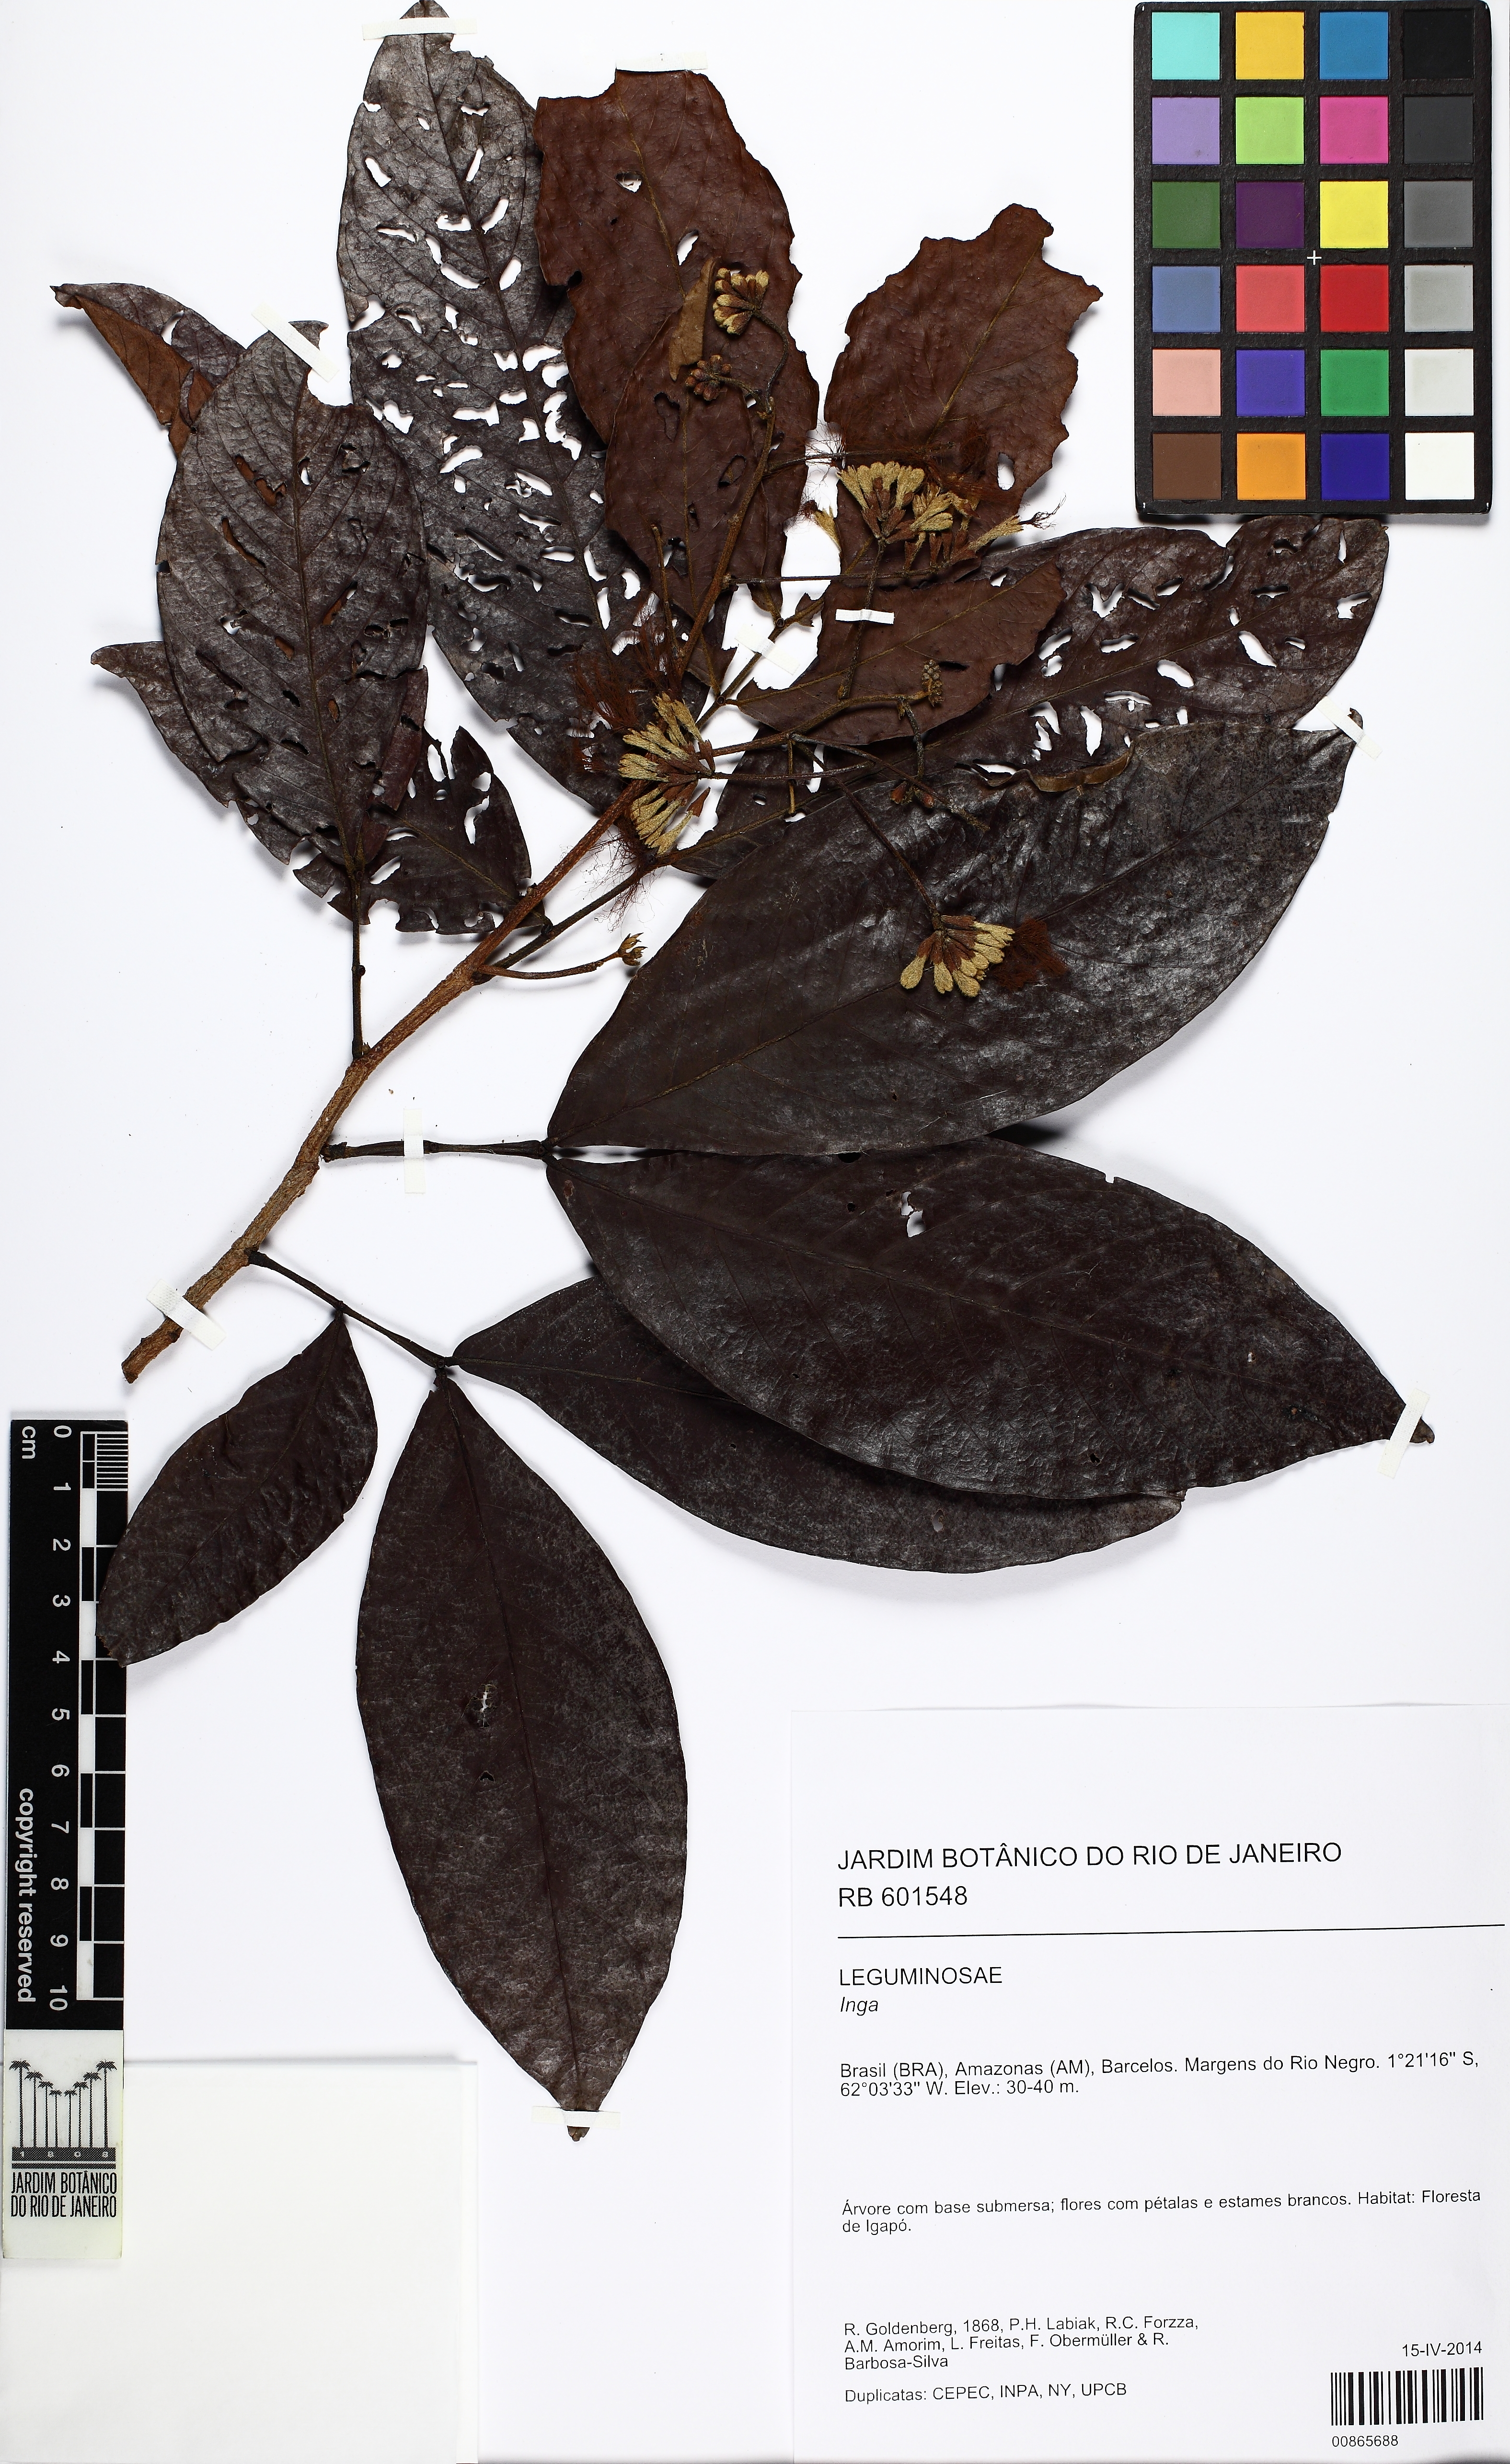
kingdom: Plantae
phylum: Tracheophyta
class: Magnoliopsida
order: Fabales
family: Fabaceae
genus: Inga
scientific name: Inga
